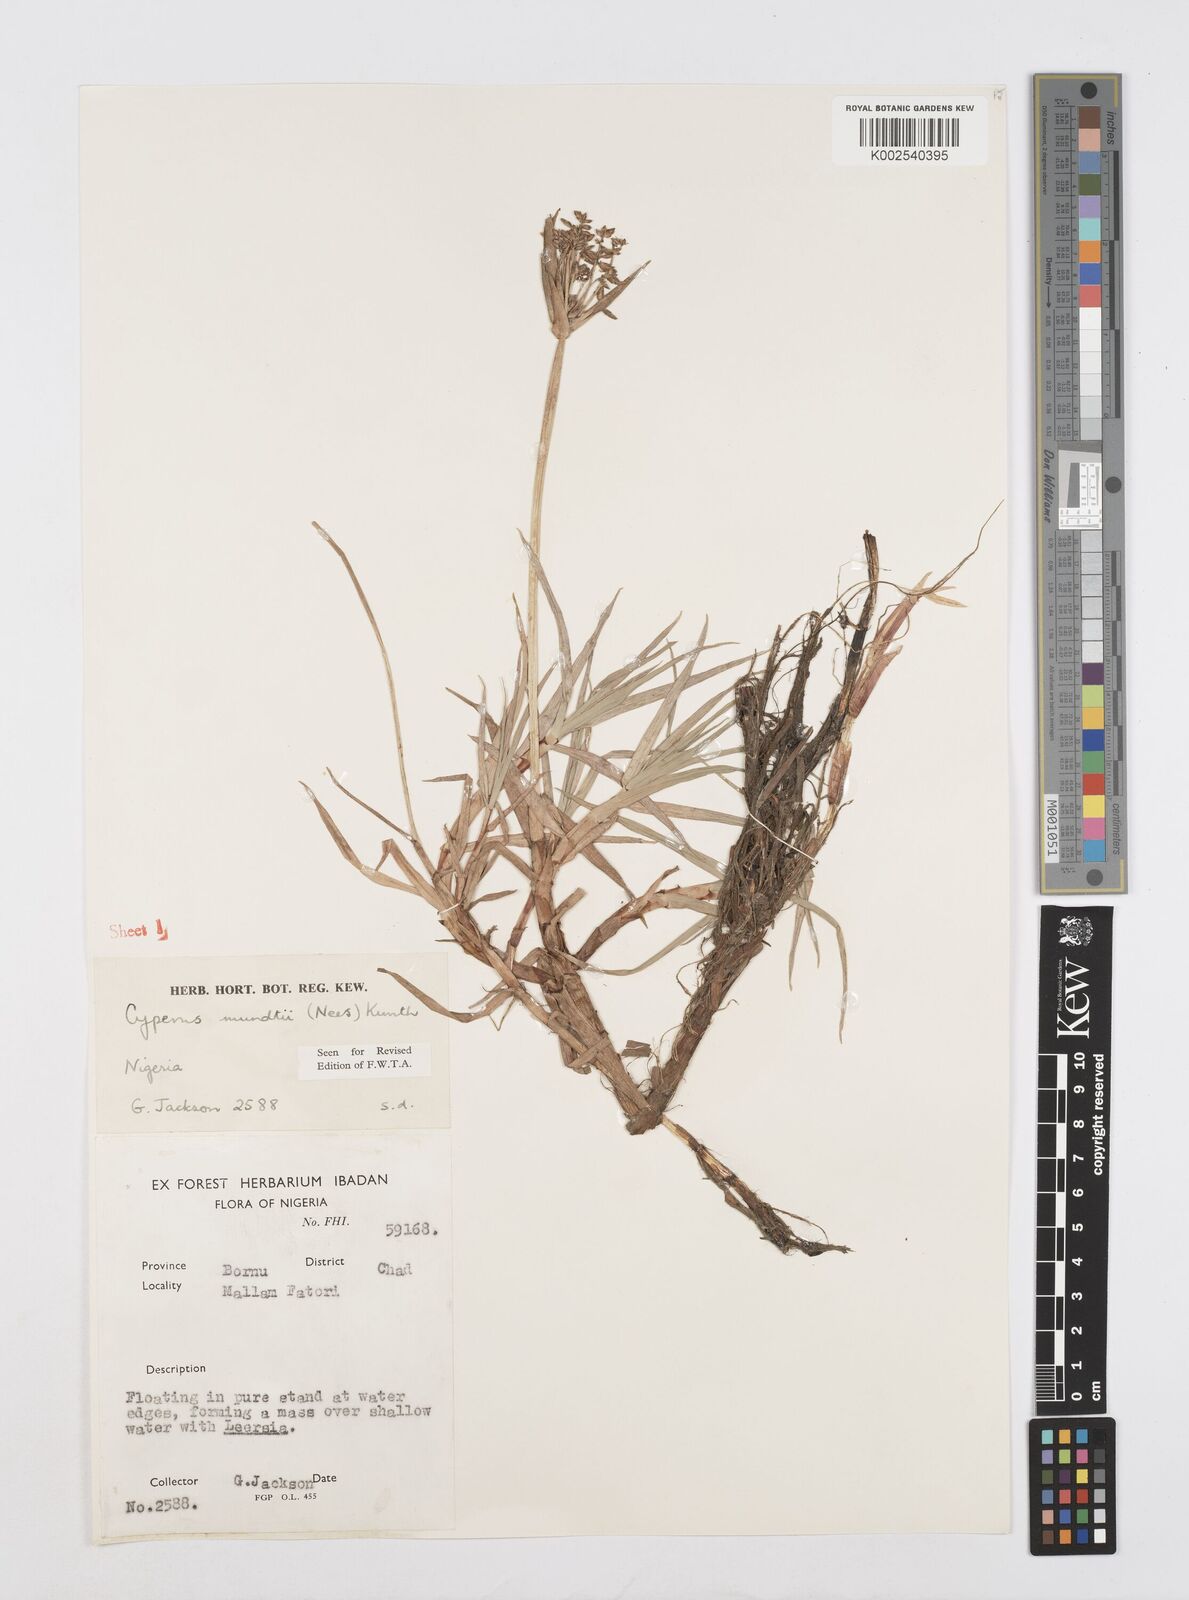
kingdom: Plantae
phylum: Tracheophyta
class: Liliopsida
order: Poales
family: Cyperaceae
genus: Cyperus
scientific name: Cyperus mundii
